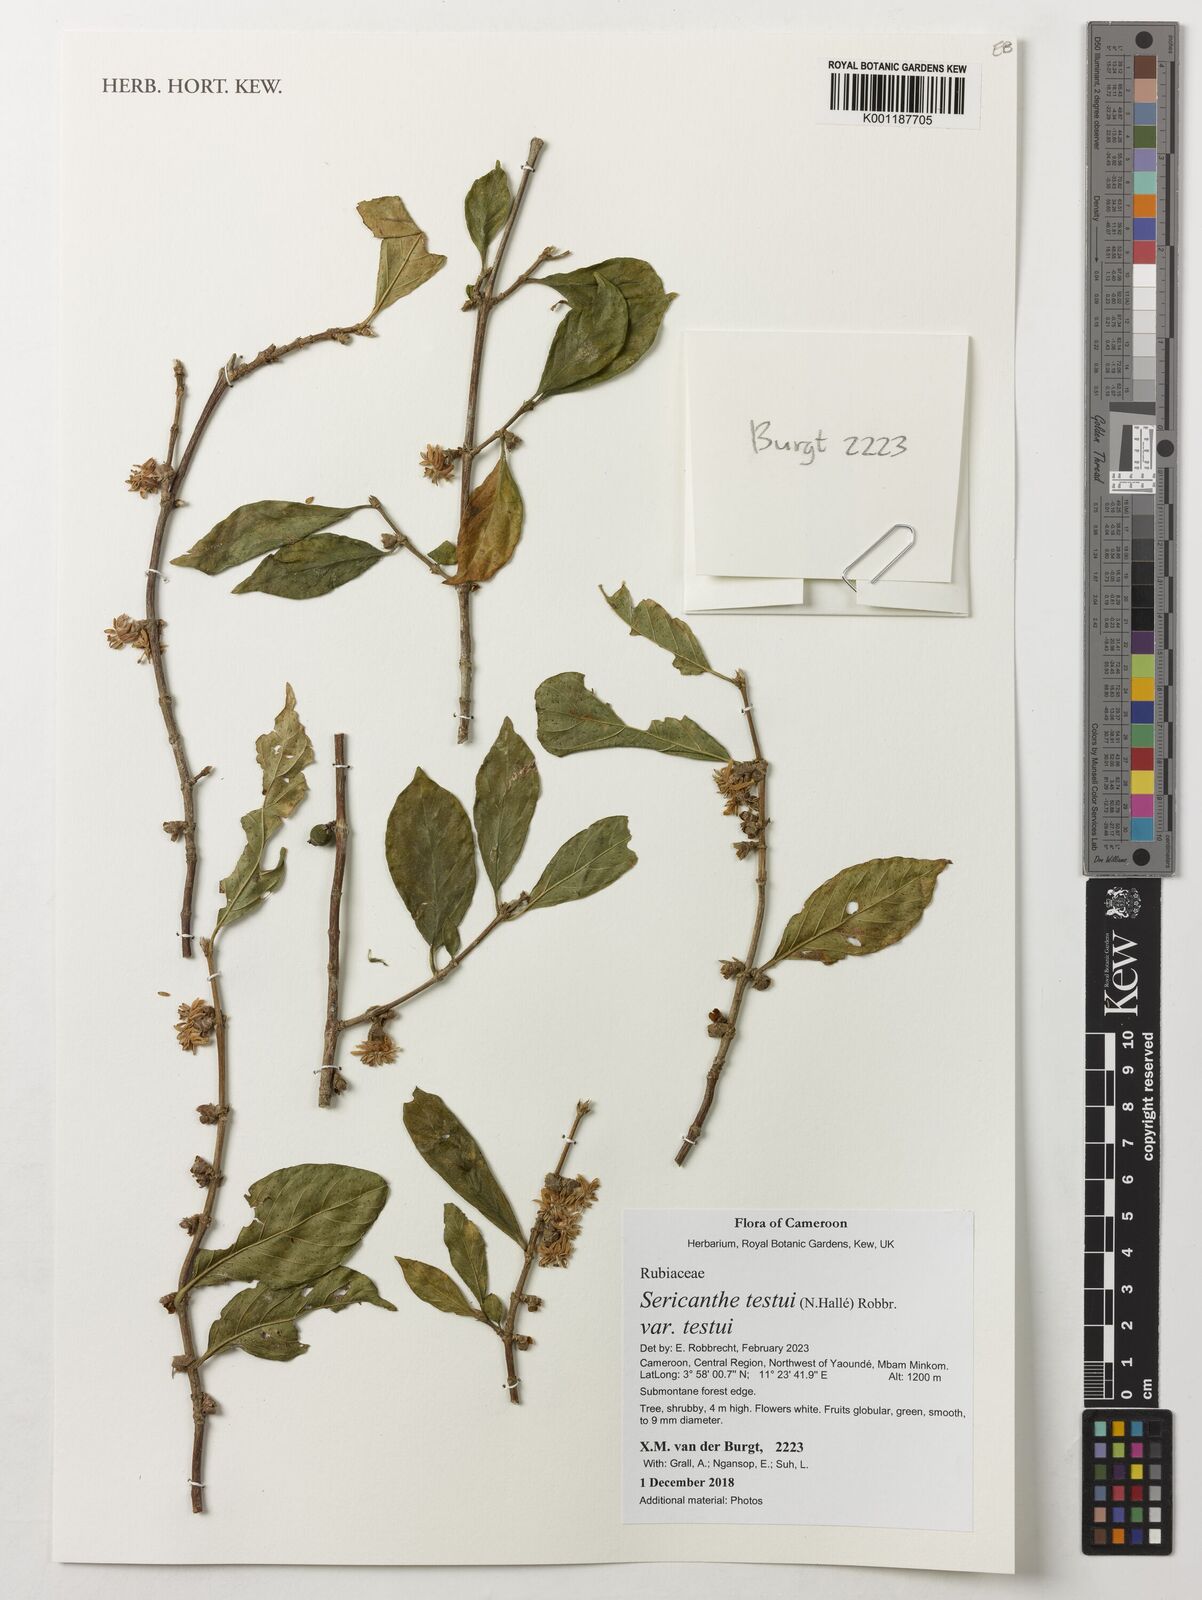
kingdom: Plantae
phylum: Tracheophyta
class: Magnoliopsida
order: Gentianales
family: Rubiaceae
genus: Sericanthe
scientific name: Sericanthe testui
